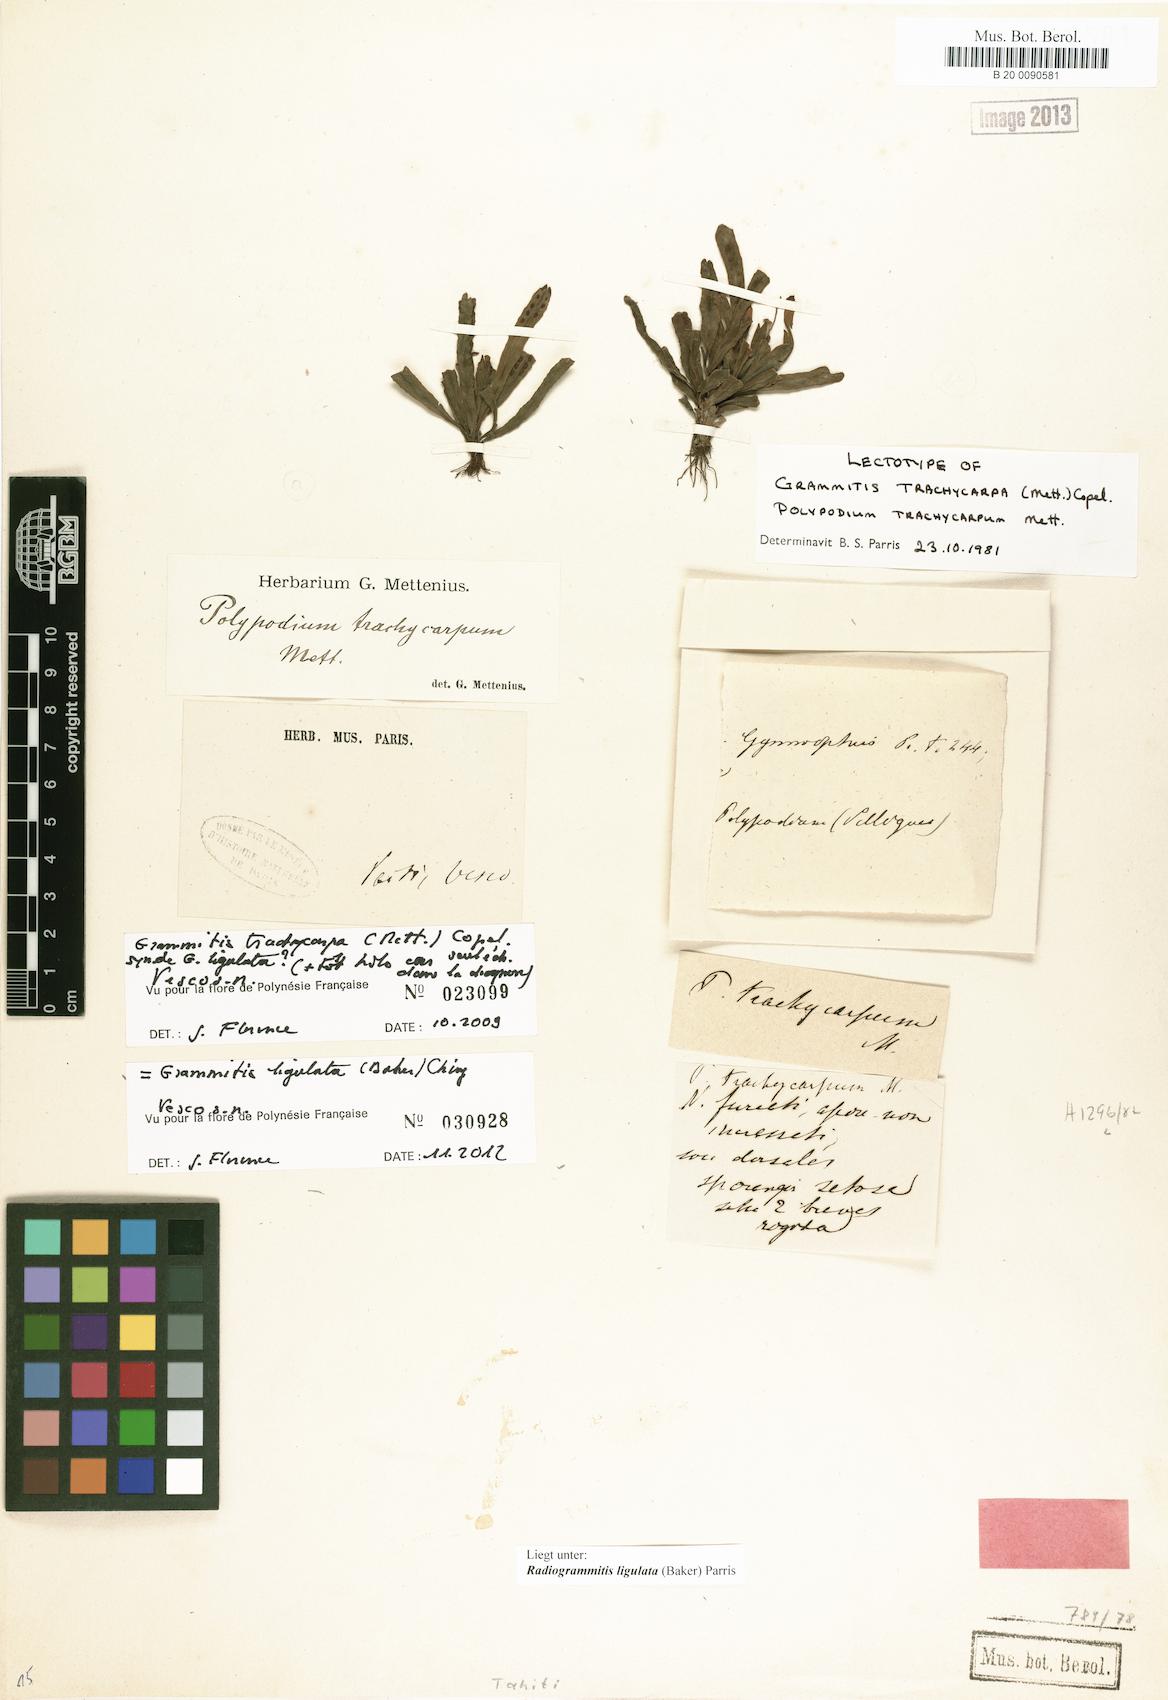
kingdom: Plantae
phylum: Tracheophyta
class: Polypodiopsida
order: Polypodiales
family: Polypodiaceae
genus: Oreogrammitis
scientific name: Oreogrammitis ligulata
